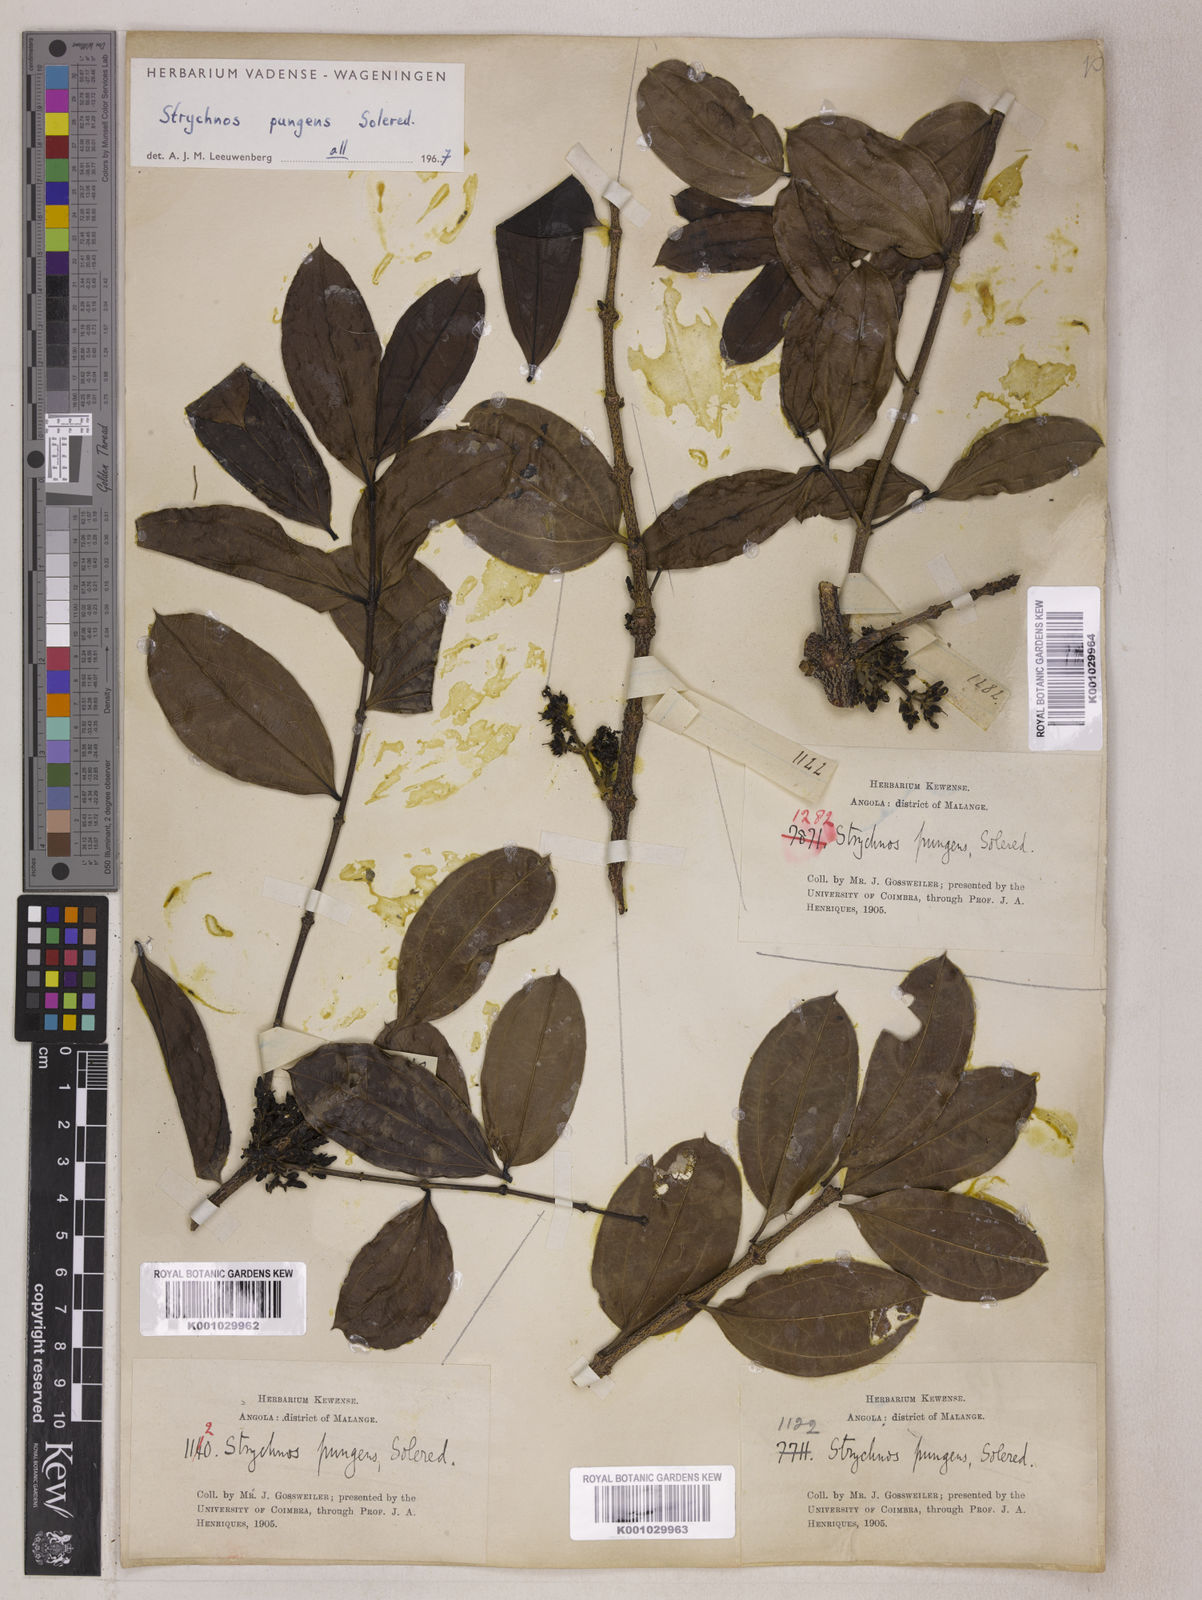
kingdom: Plantae
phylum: Tracheophyta
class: Magnoliopsida
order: Gentianales
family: Loganiaceae
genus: Strychnos
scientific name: Strychnos pungens
